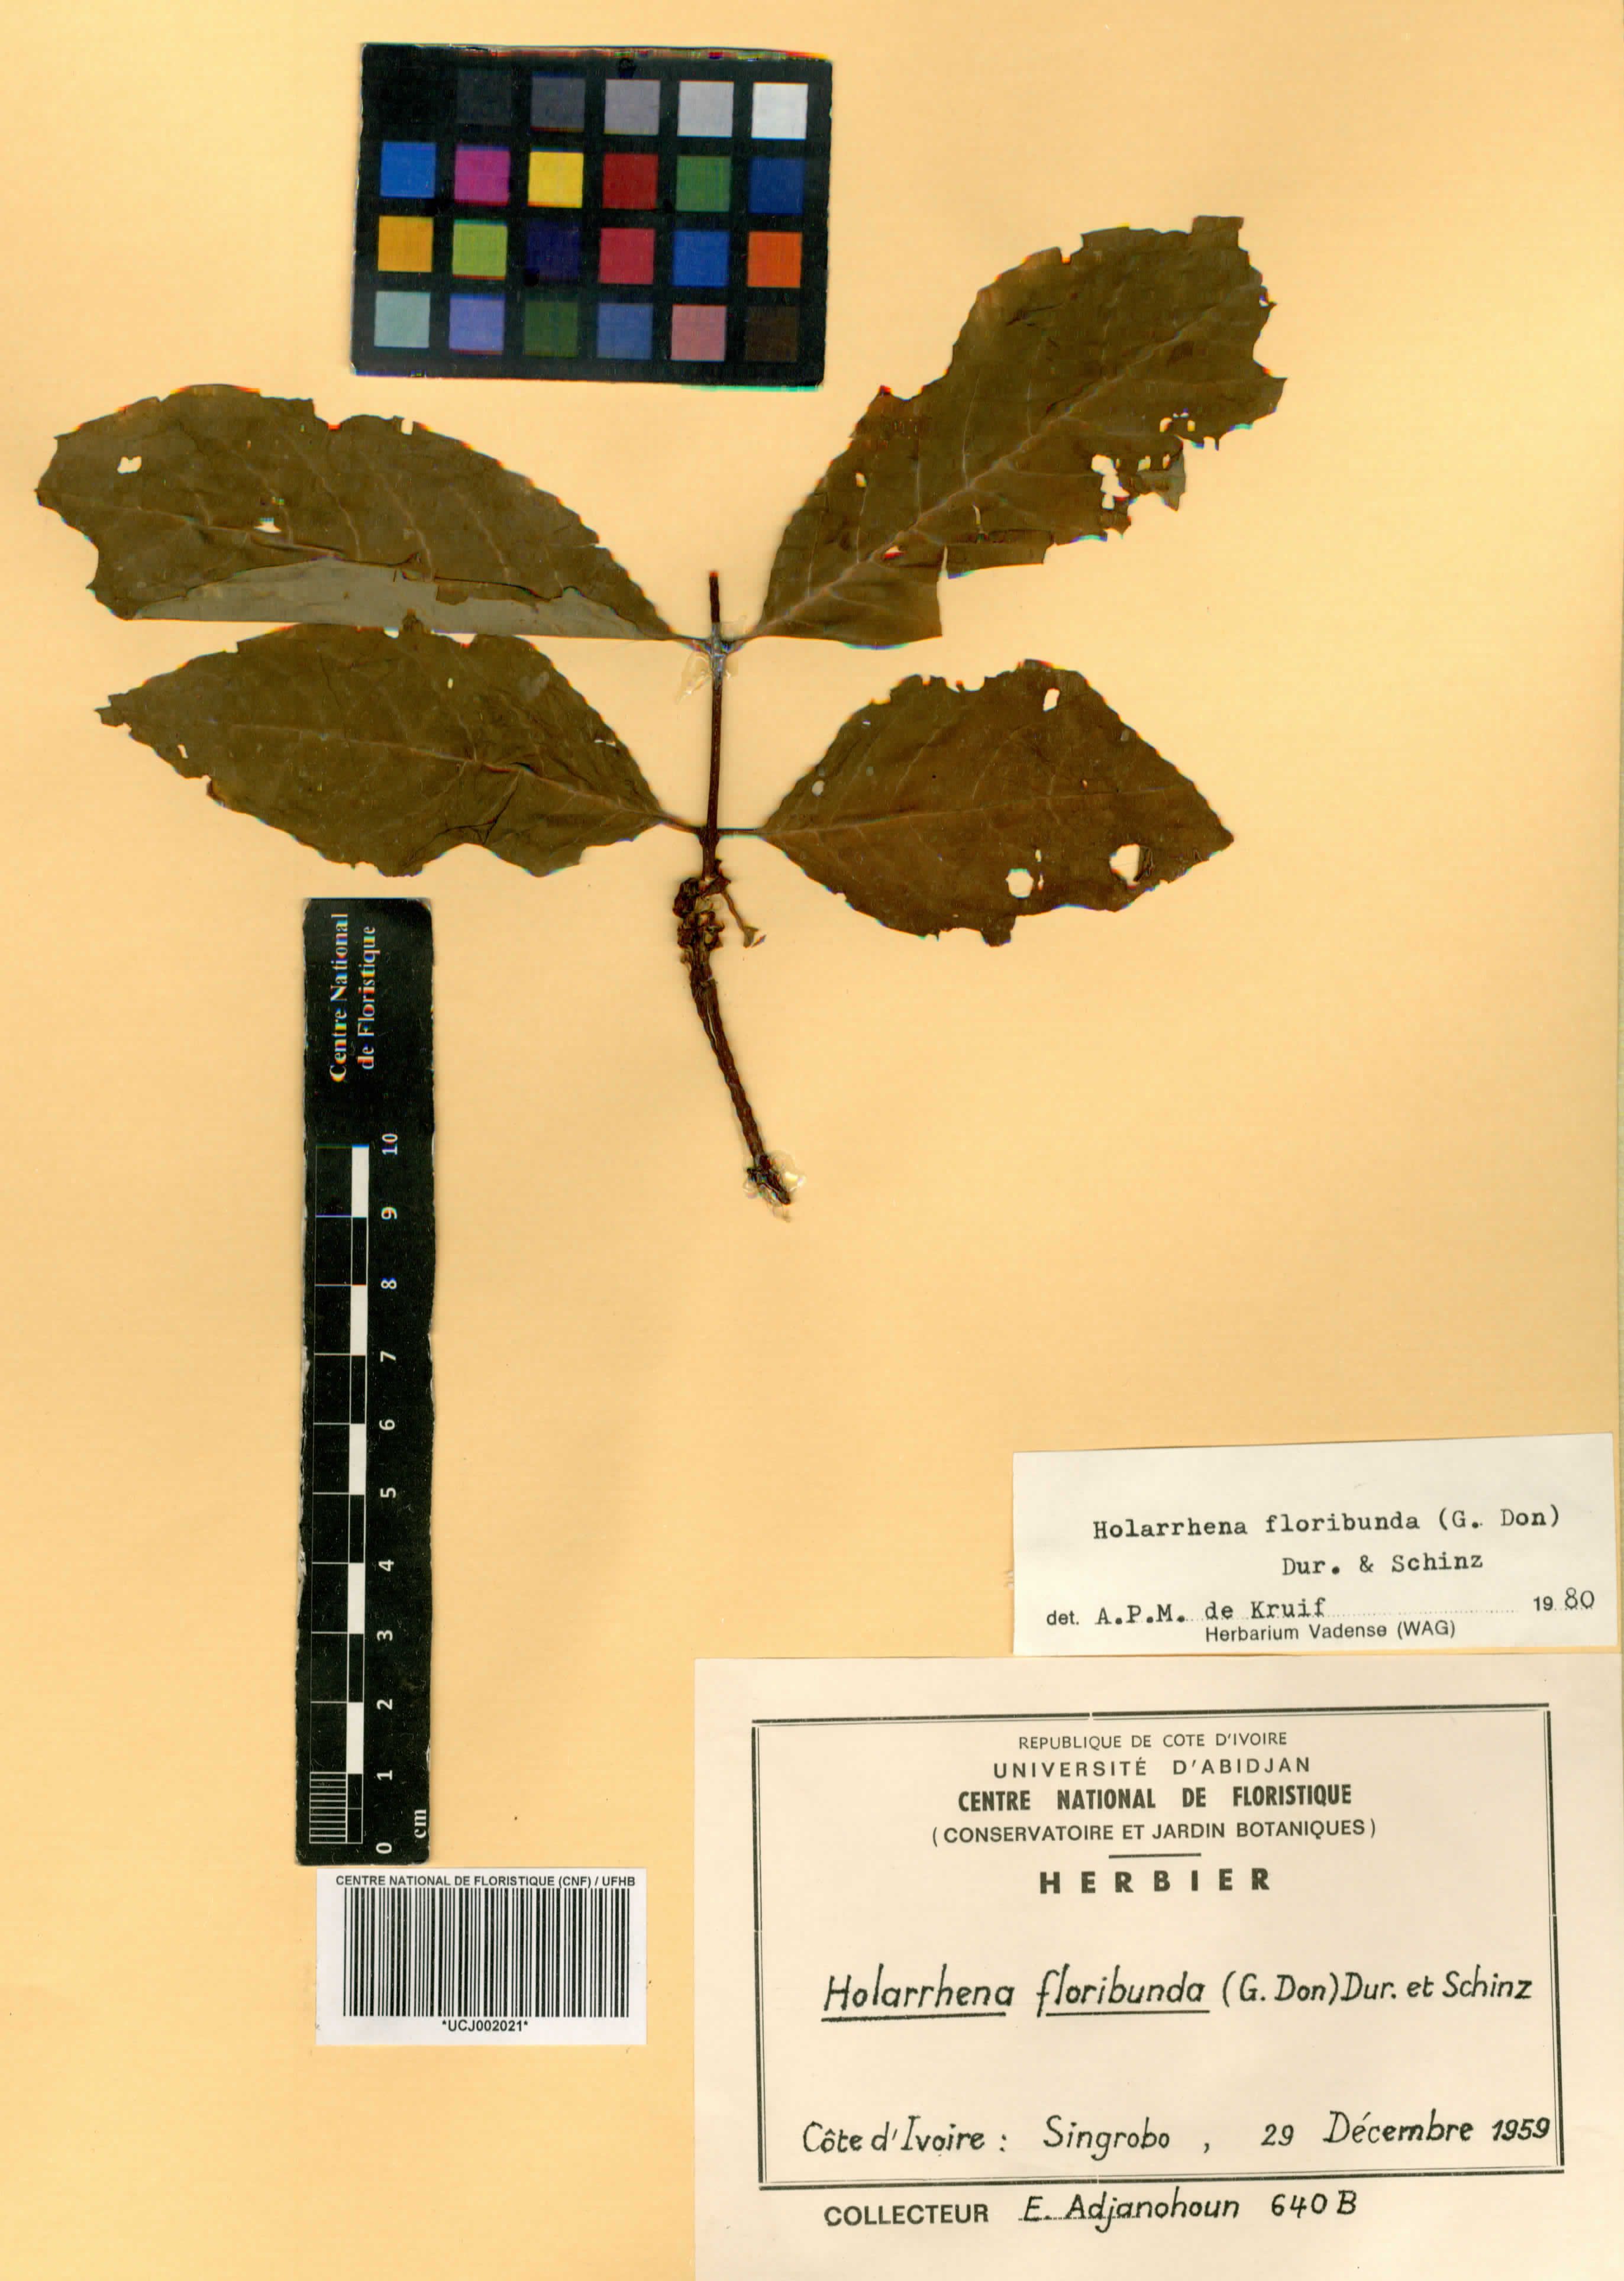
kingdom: Plantae
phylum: Tracheophyta
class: Magnoliopsida
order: Gentianales
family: Apocynaceae
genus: Holarrhena
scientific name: Holarrhena floribunda
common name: Kurchibark
